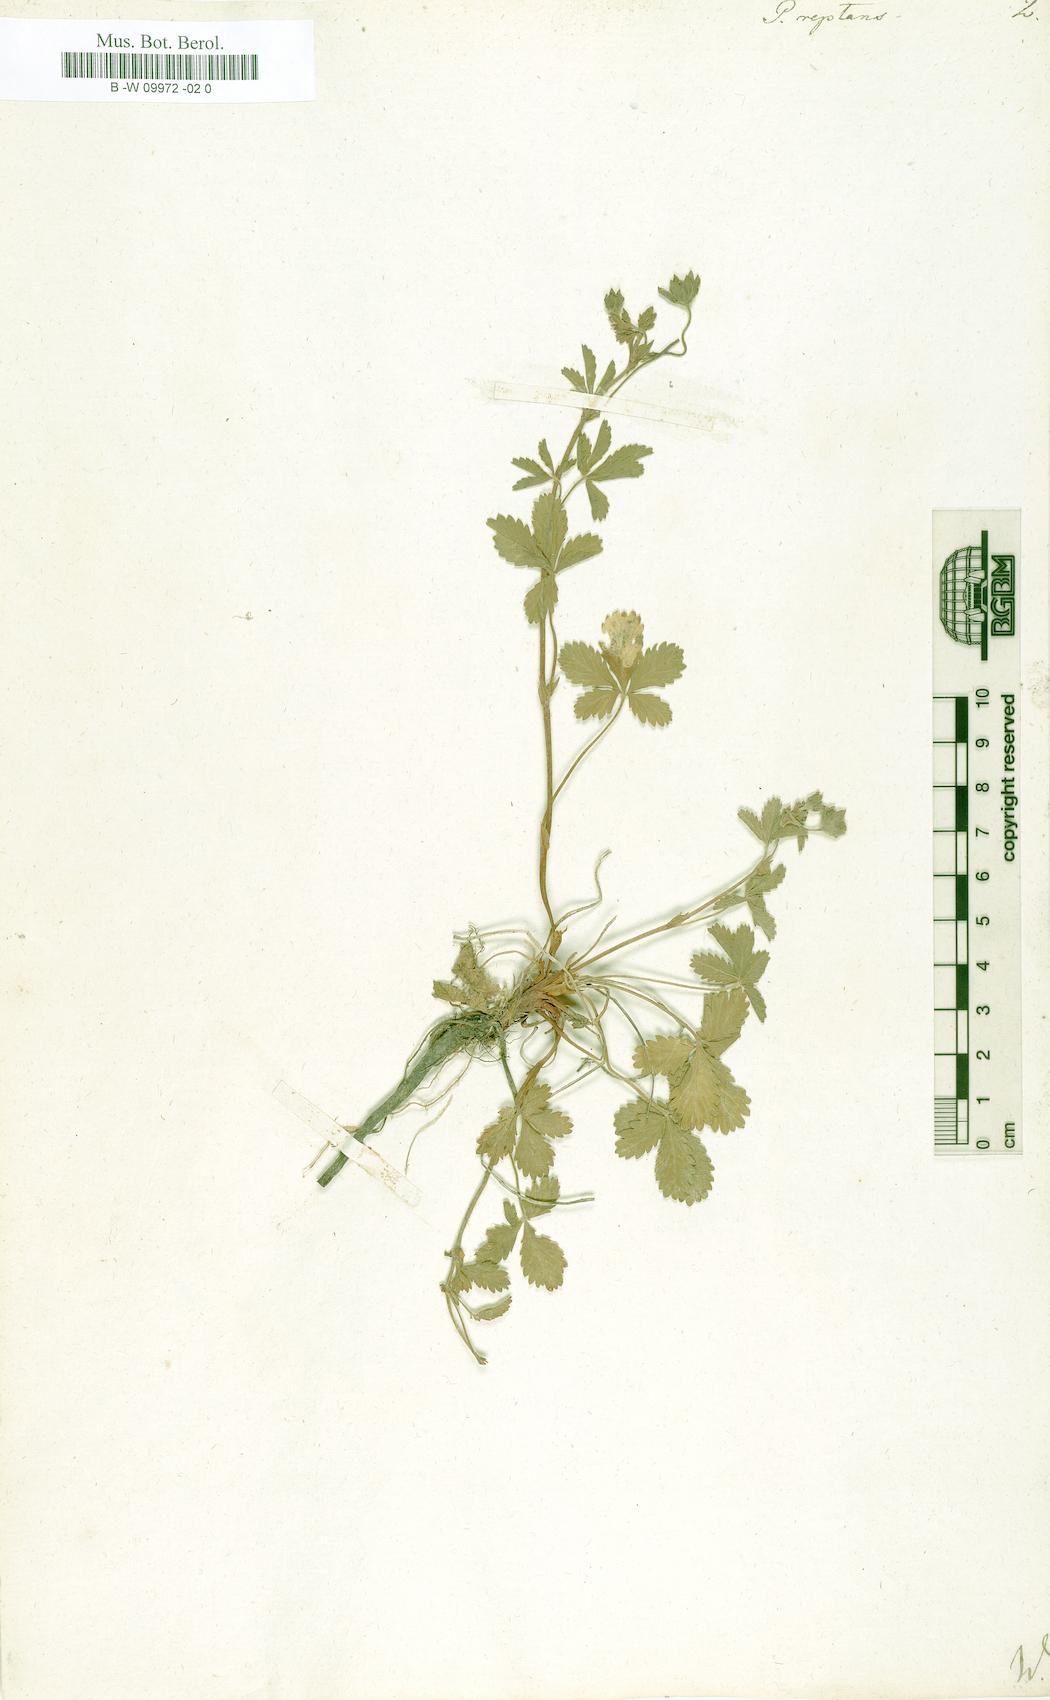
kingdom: Plantae
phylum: Tracheophyta
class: Magnoliopsida
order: Rosales
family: Rosaceae
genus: Potentilla
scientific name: Potentilla reptans
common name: Creeping cinquefoil
